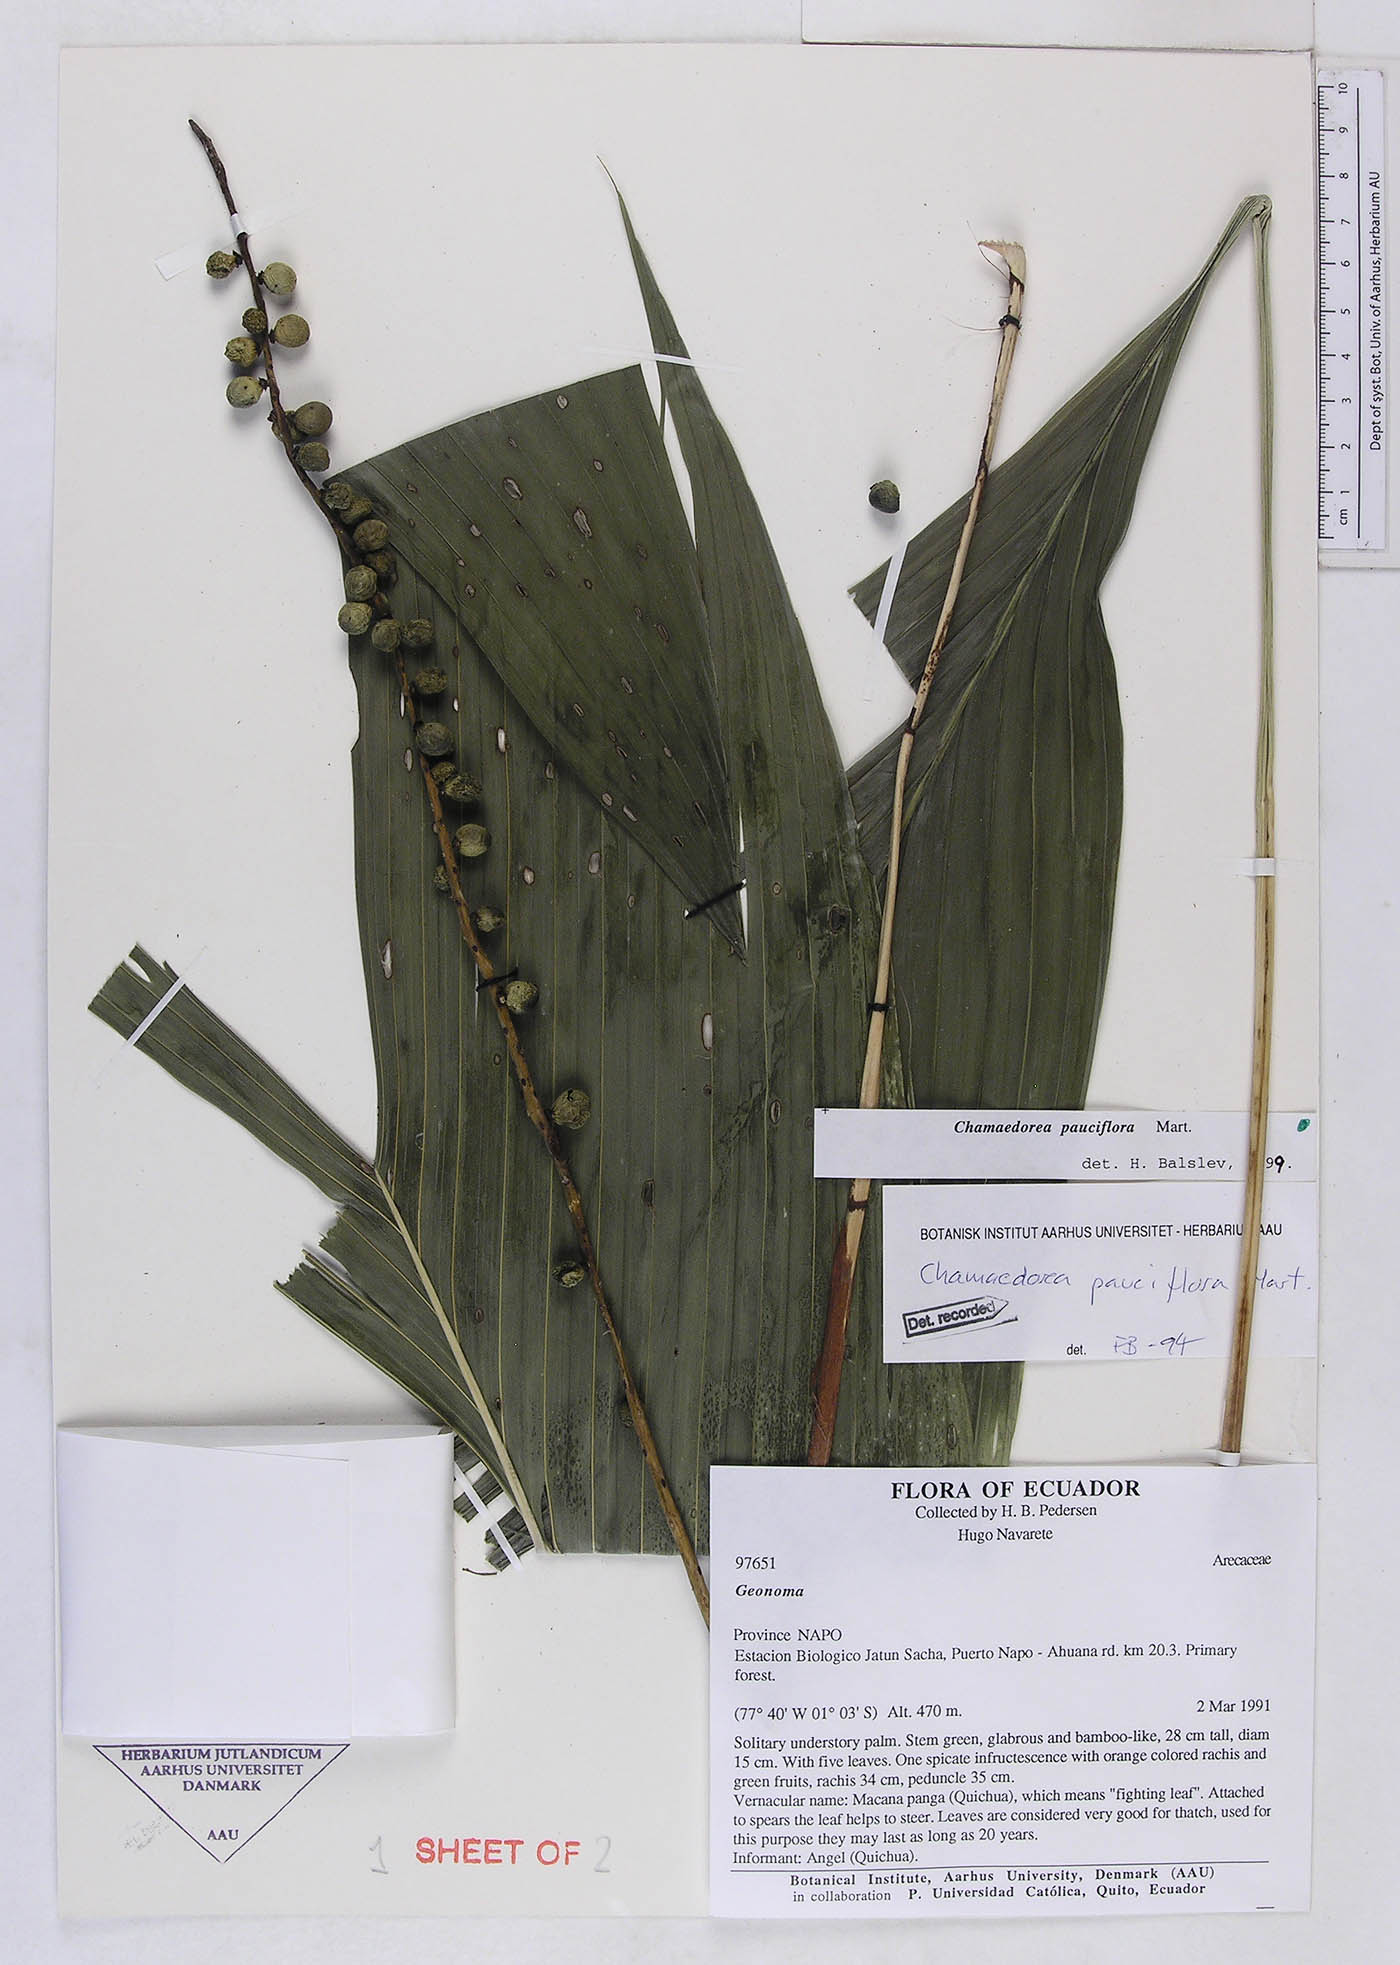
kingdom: Plantae
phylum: Tracheophyta
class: Liliopsida
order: Arecales
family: Arecaceae
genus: Chamaedorea
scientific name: Chamaedorea pauciflora
